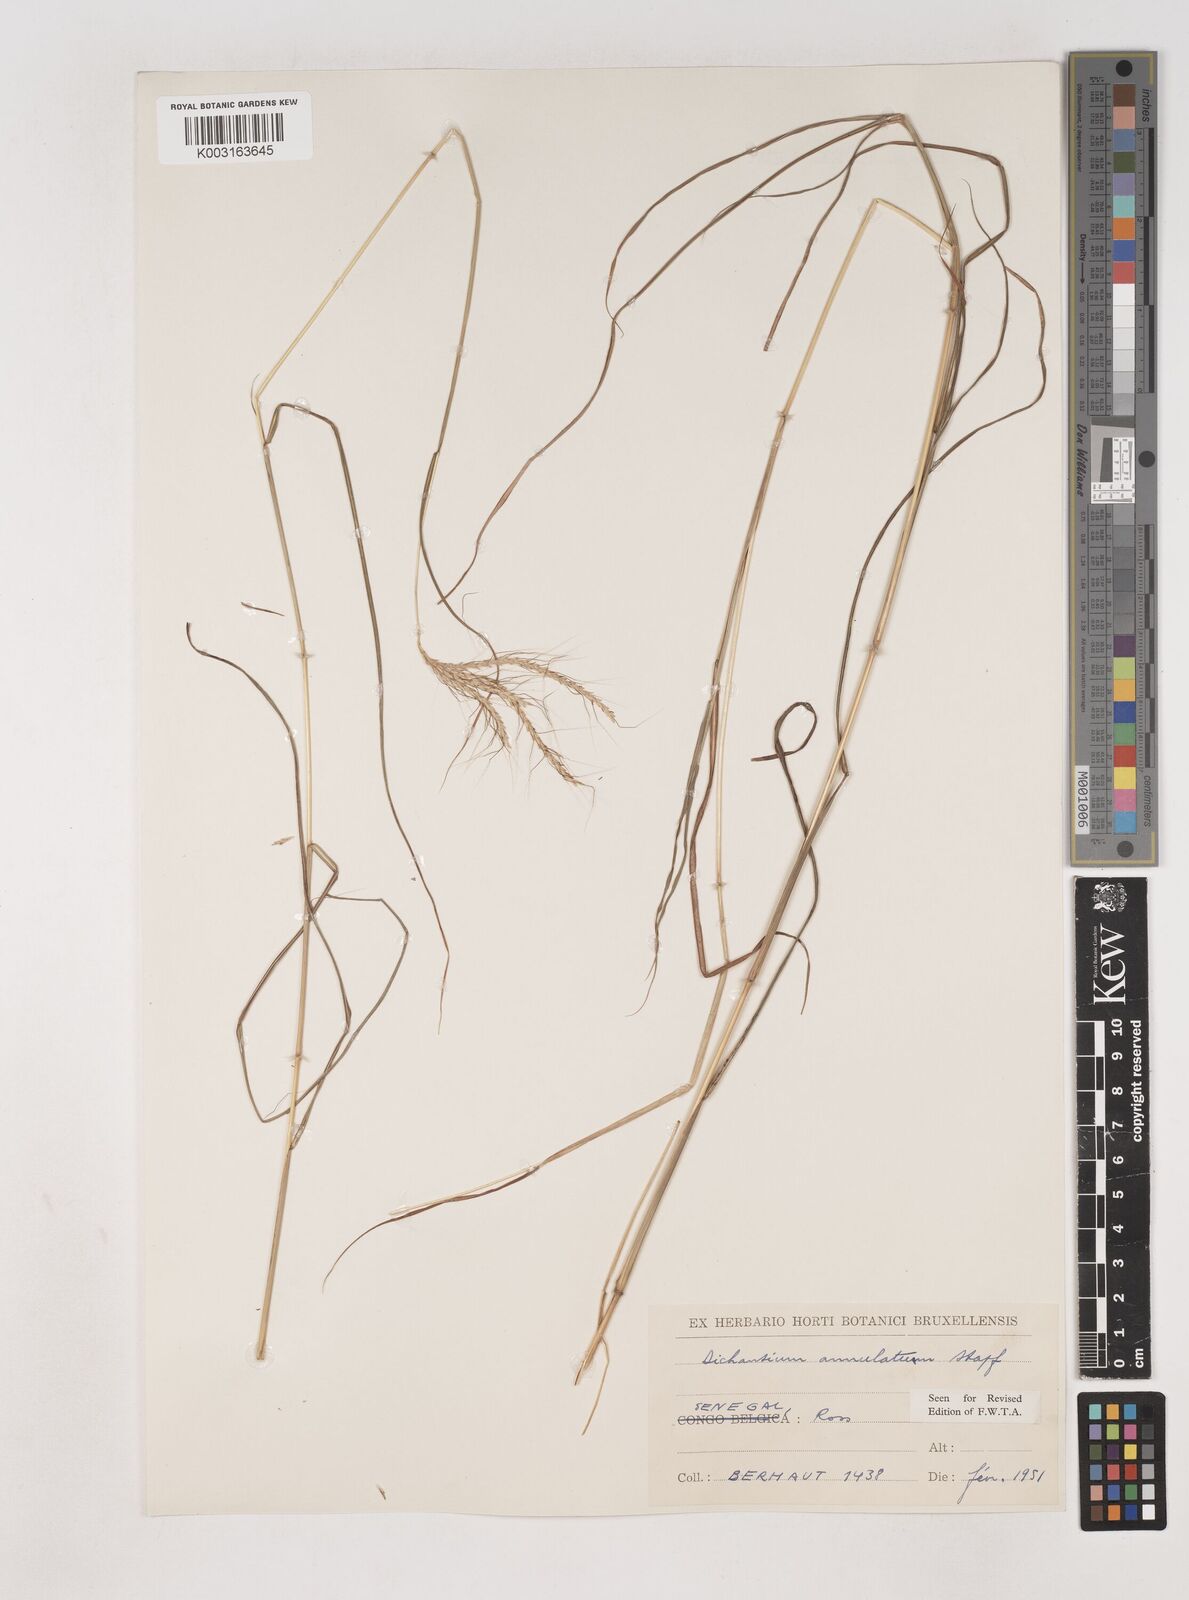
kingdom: Plantae
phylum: Tracheophyta
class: Liliopsida
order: Poales
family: Poaceae
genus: Dichanthium
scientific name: Dichanthium annulatum
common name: Kleberg's bluestem
